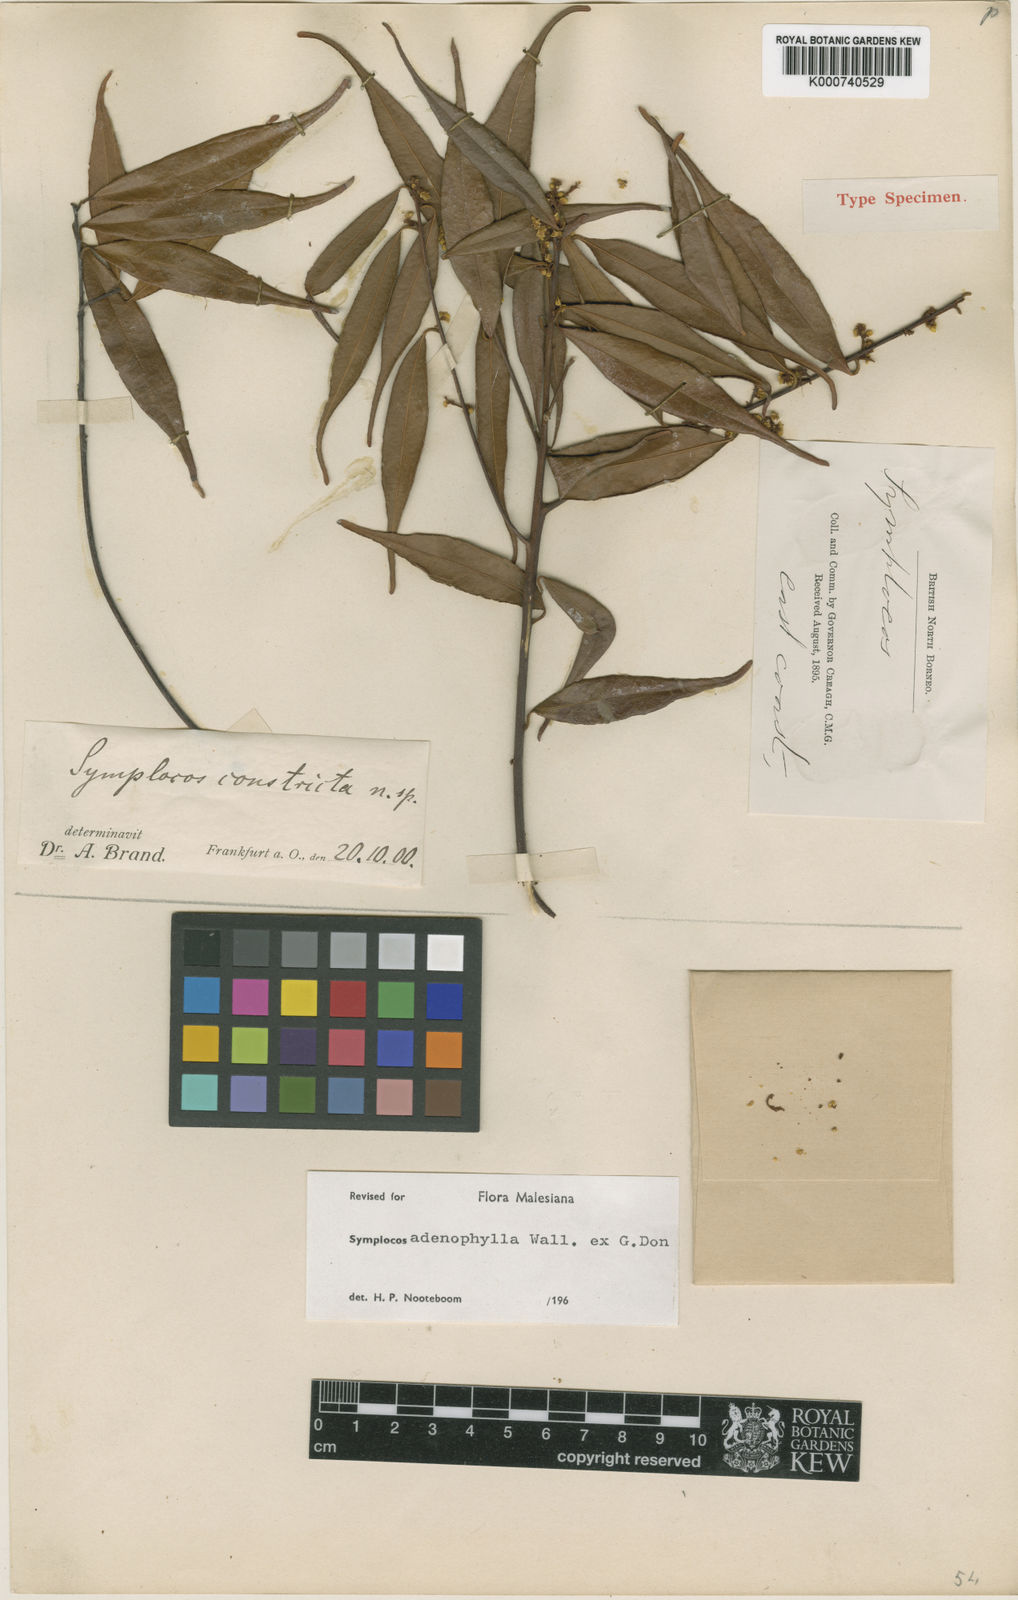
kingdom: Plantae
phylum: Tracheophyta
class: Magnoliopsida
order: Ericales
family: Symplocaceae
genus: Symplocos
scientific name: Symplocos
